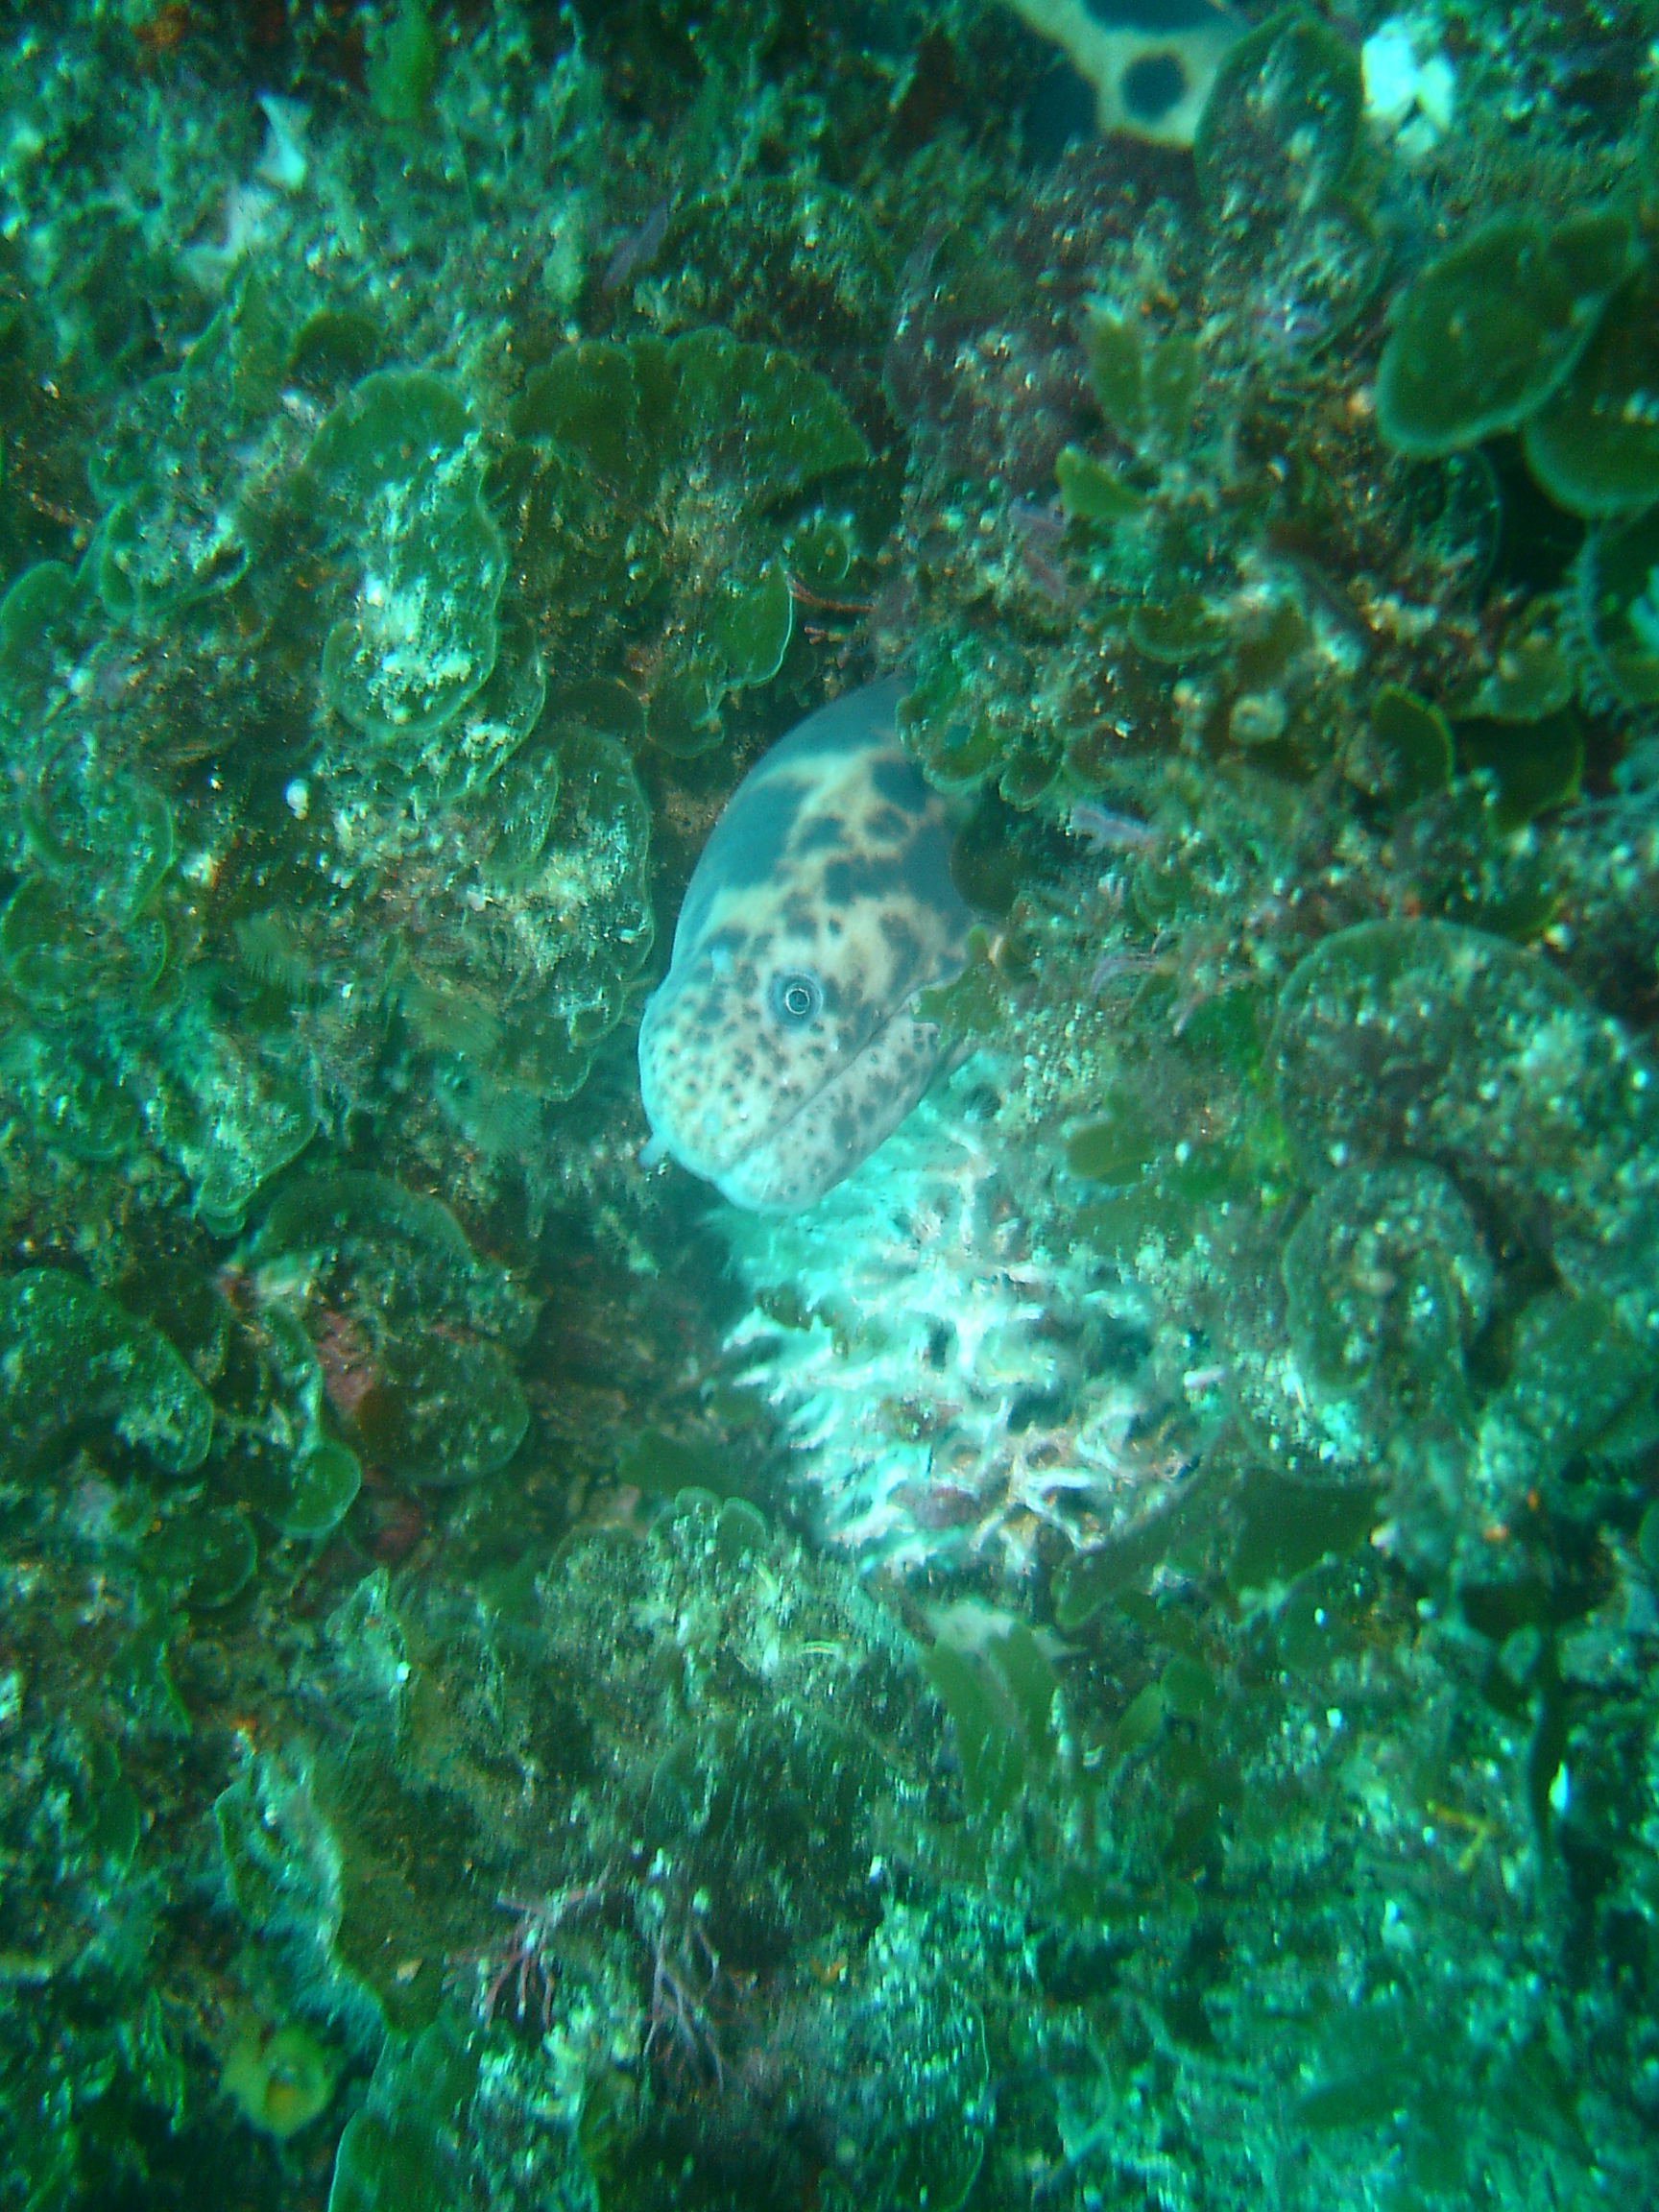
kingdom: Animalia
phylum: Chordata
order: Anguilliformes
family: Muraenidae
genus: Scuticaria
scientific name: Scuticaria tigrina
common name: Tiger moray
